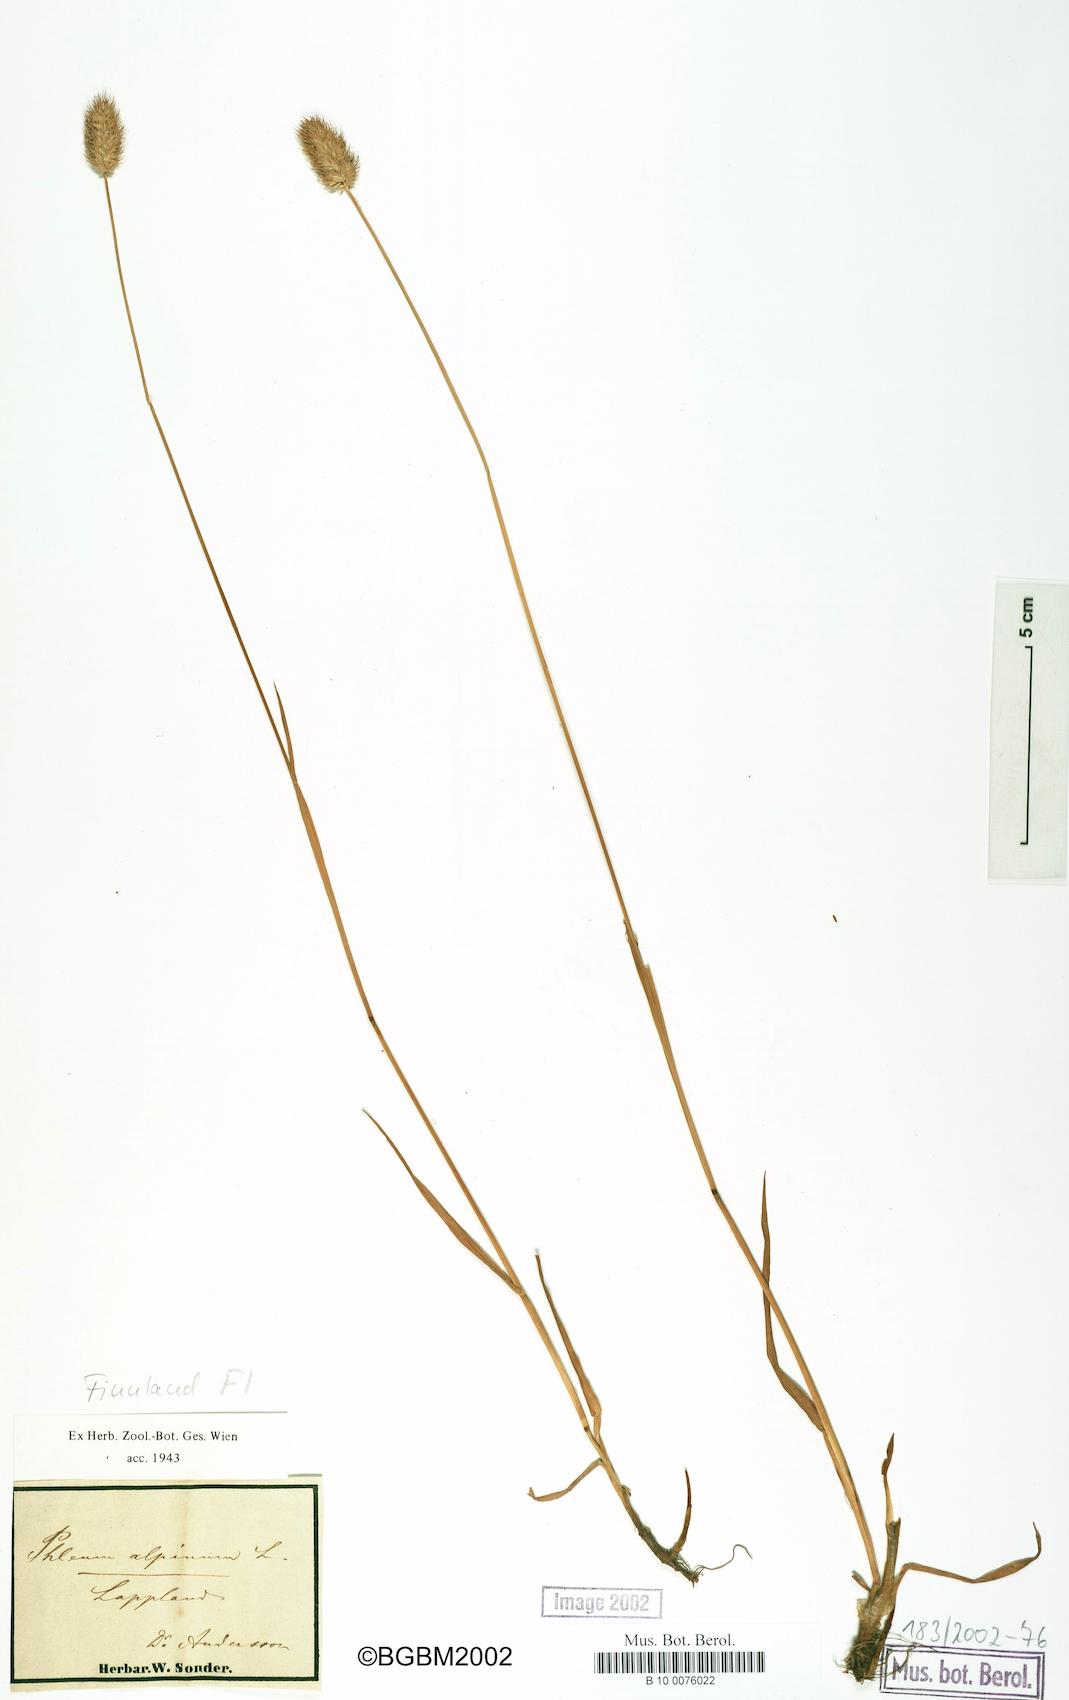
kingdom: Plantae
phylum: Tracheophyta
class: Liliopsida
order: Poales
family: Poaceae
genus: Phleum
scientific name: Phleum alpinum
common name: Alpine cat's-tail
